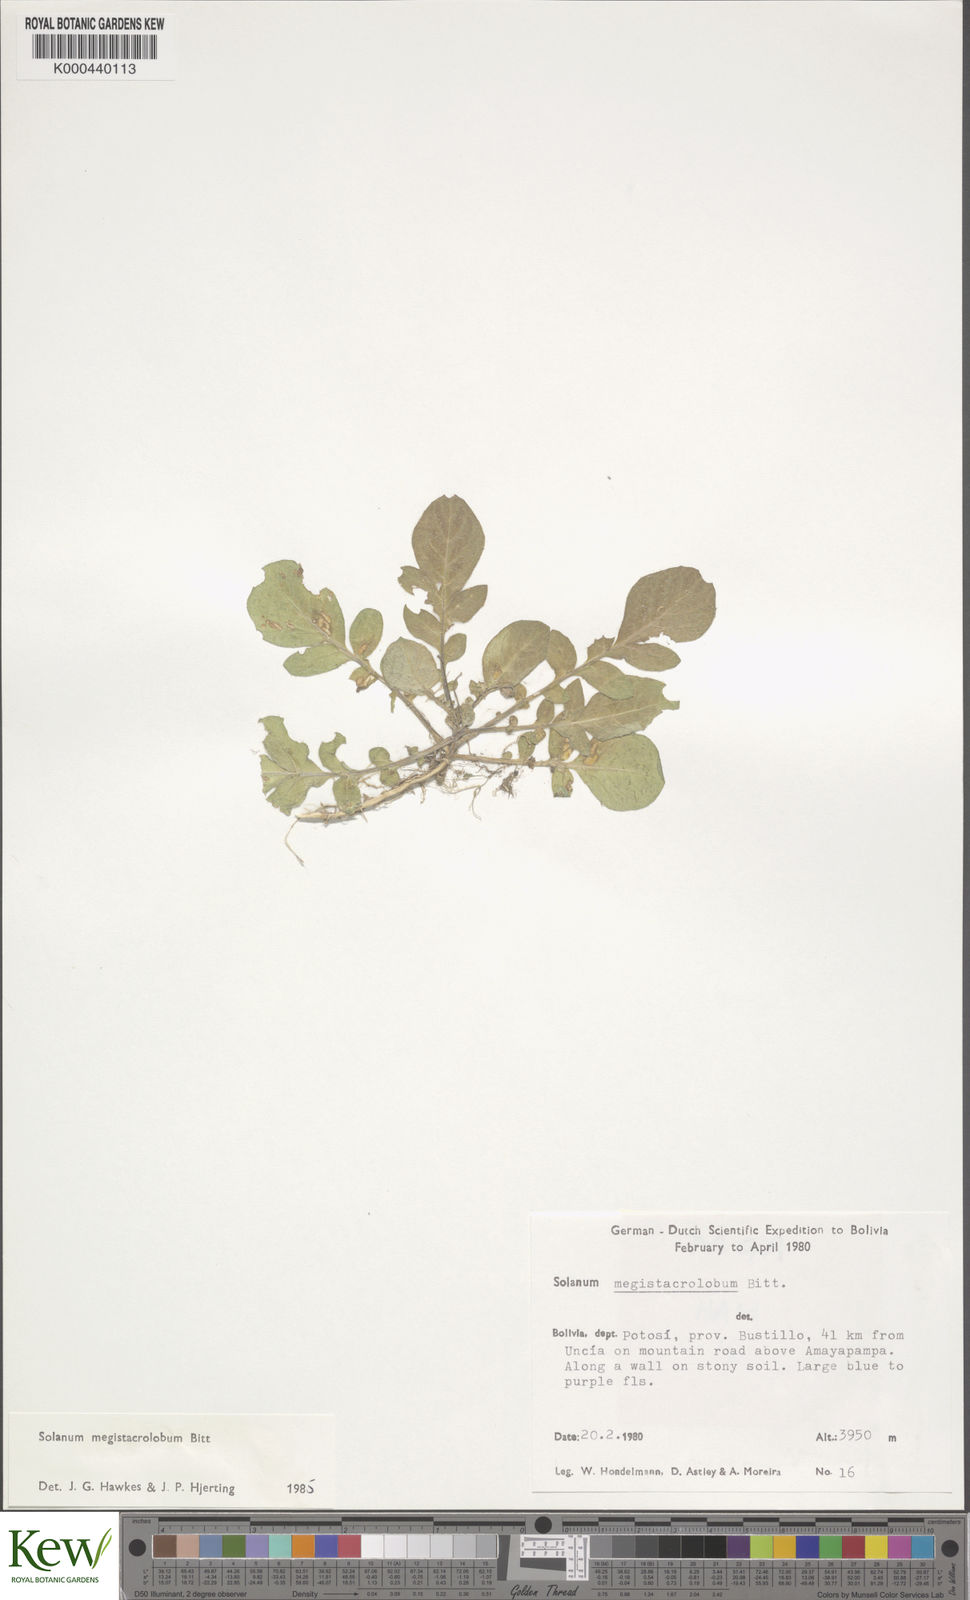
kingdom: Plantae
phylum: Tracheophyta
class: Magnoliopsida
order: Solanales
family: Solanaceae
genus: Solanum
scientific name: Solanum boliviense
